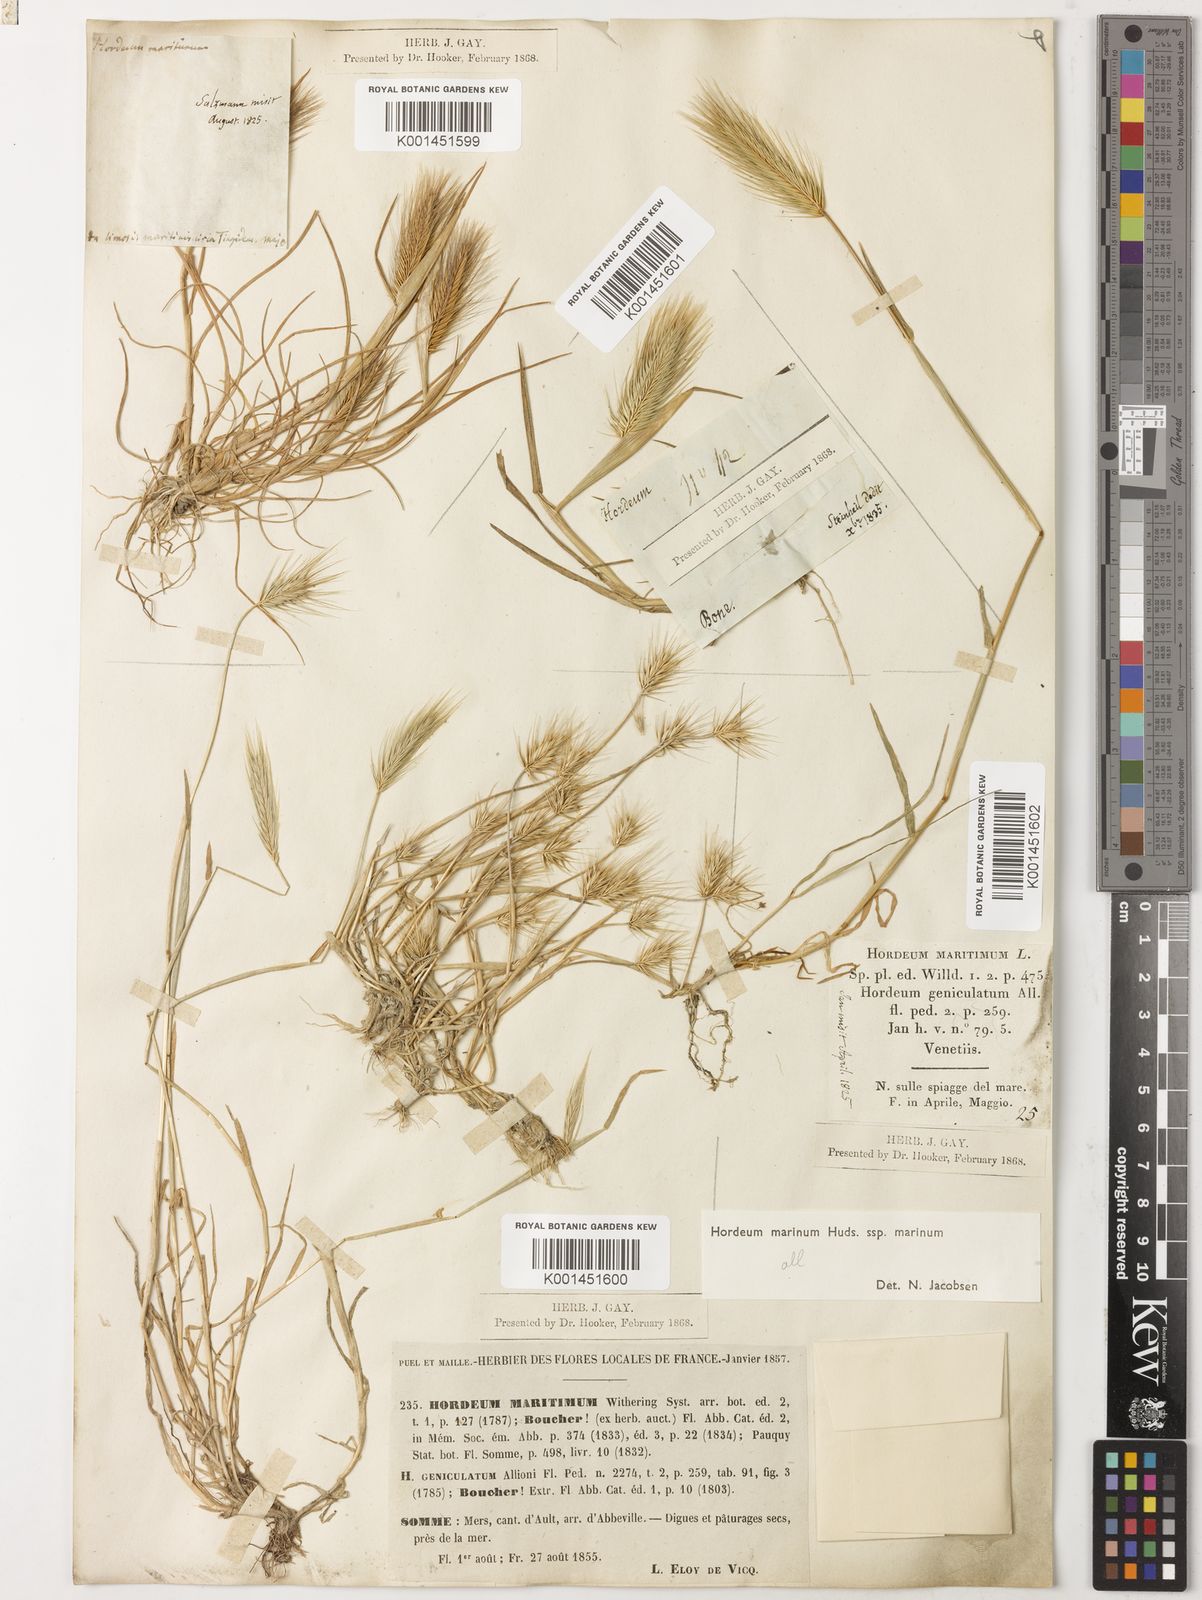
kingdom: Plantae
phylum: Tracheophyta
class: Liliopsida
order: Poales
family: Poaceae
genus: Hordeum
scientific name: Hordeum marinum
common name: Sea barley
